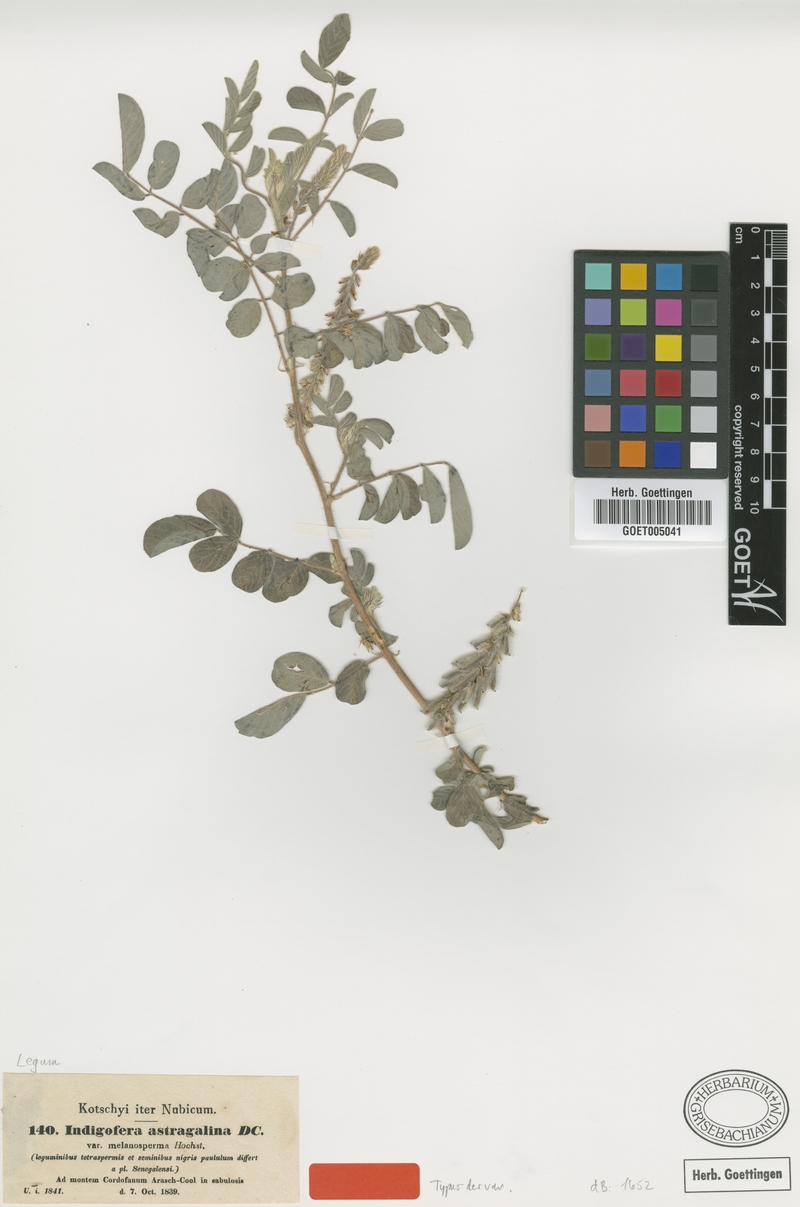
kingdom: Plantae
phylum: Tracheophyta
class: Magnoliopsida
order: Fabales
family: Fabaceae
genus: Indigofera
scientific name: Indigofera astragalina
